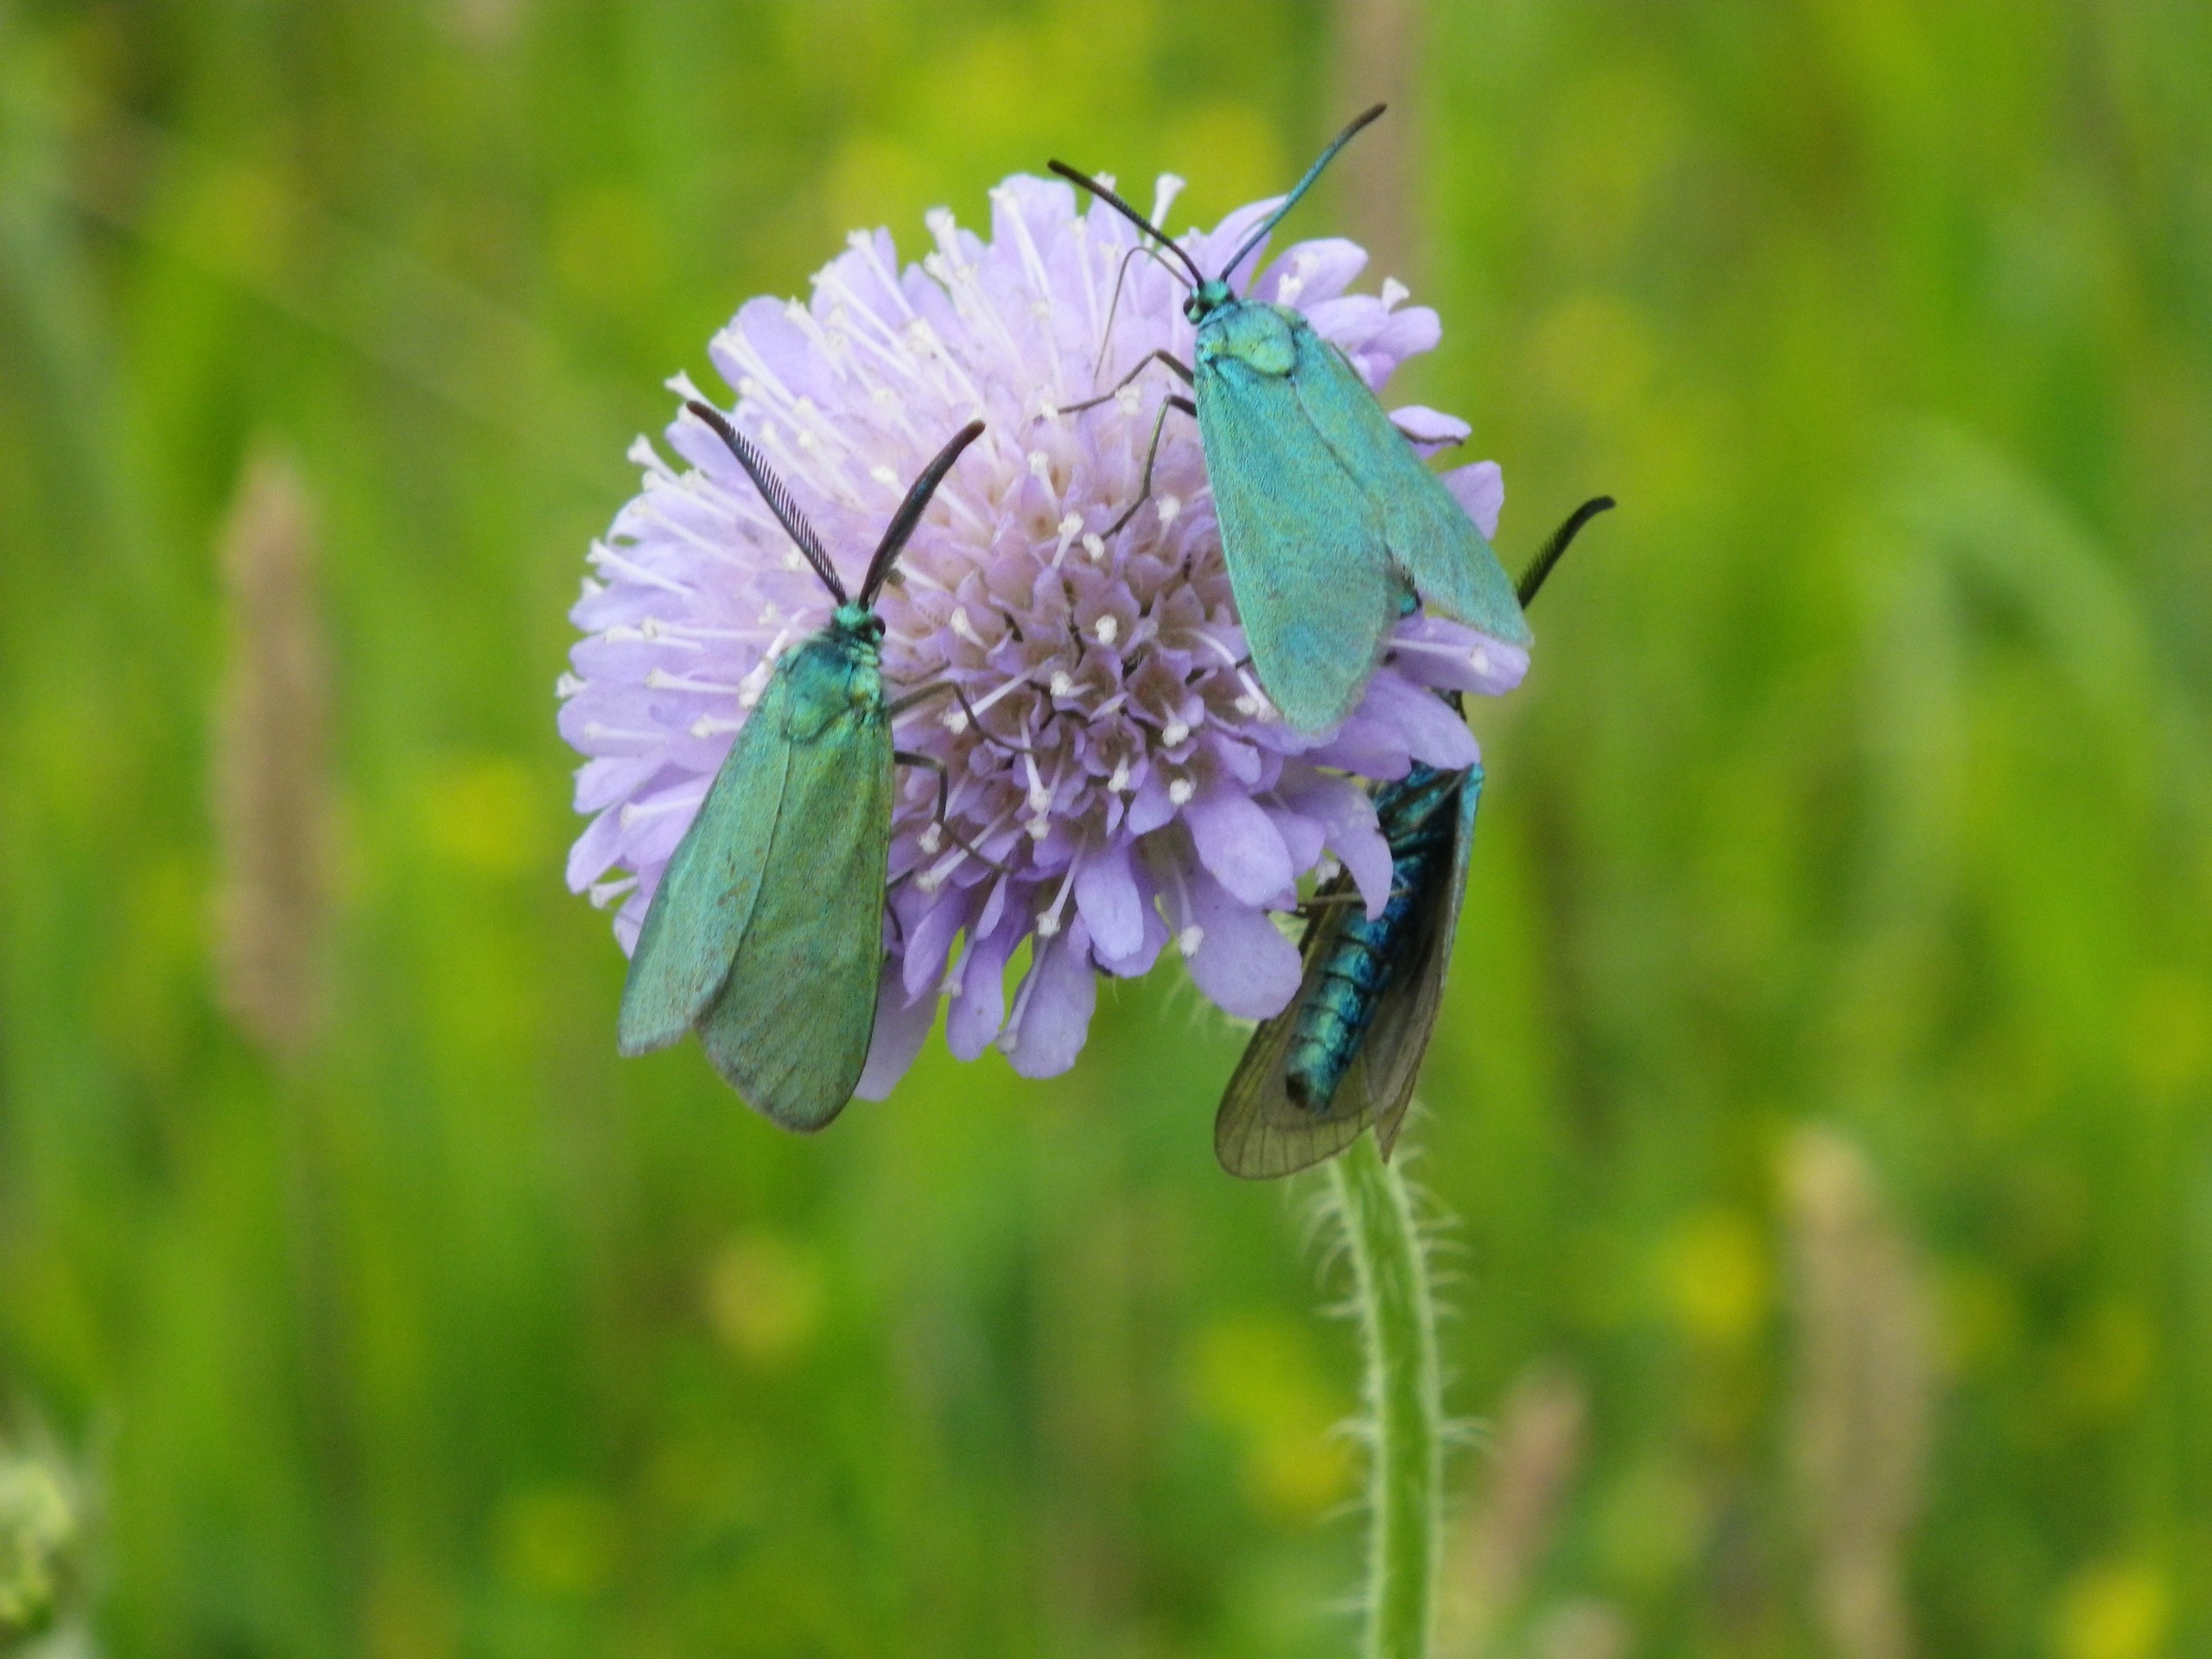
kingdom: Animalia
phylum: Arthropoda
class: Insecta
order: Lepidoptera
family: Zygaenidae
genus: Adscita
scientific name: Adscita statices
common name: Metalvinge
